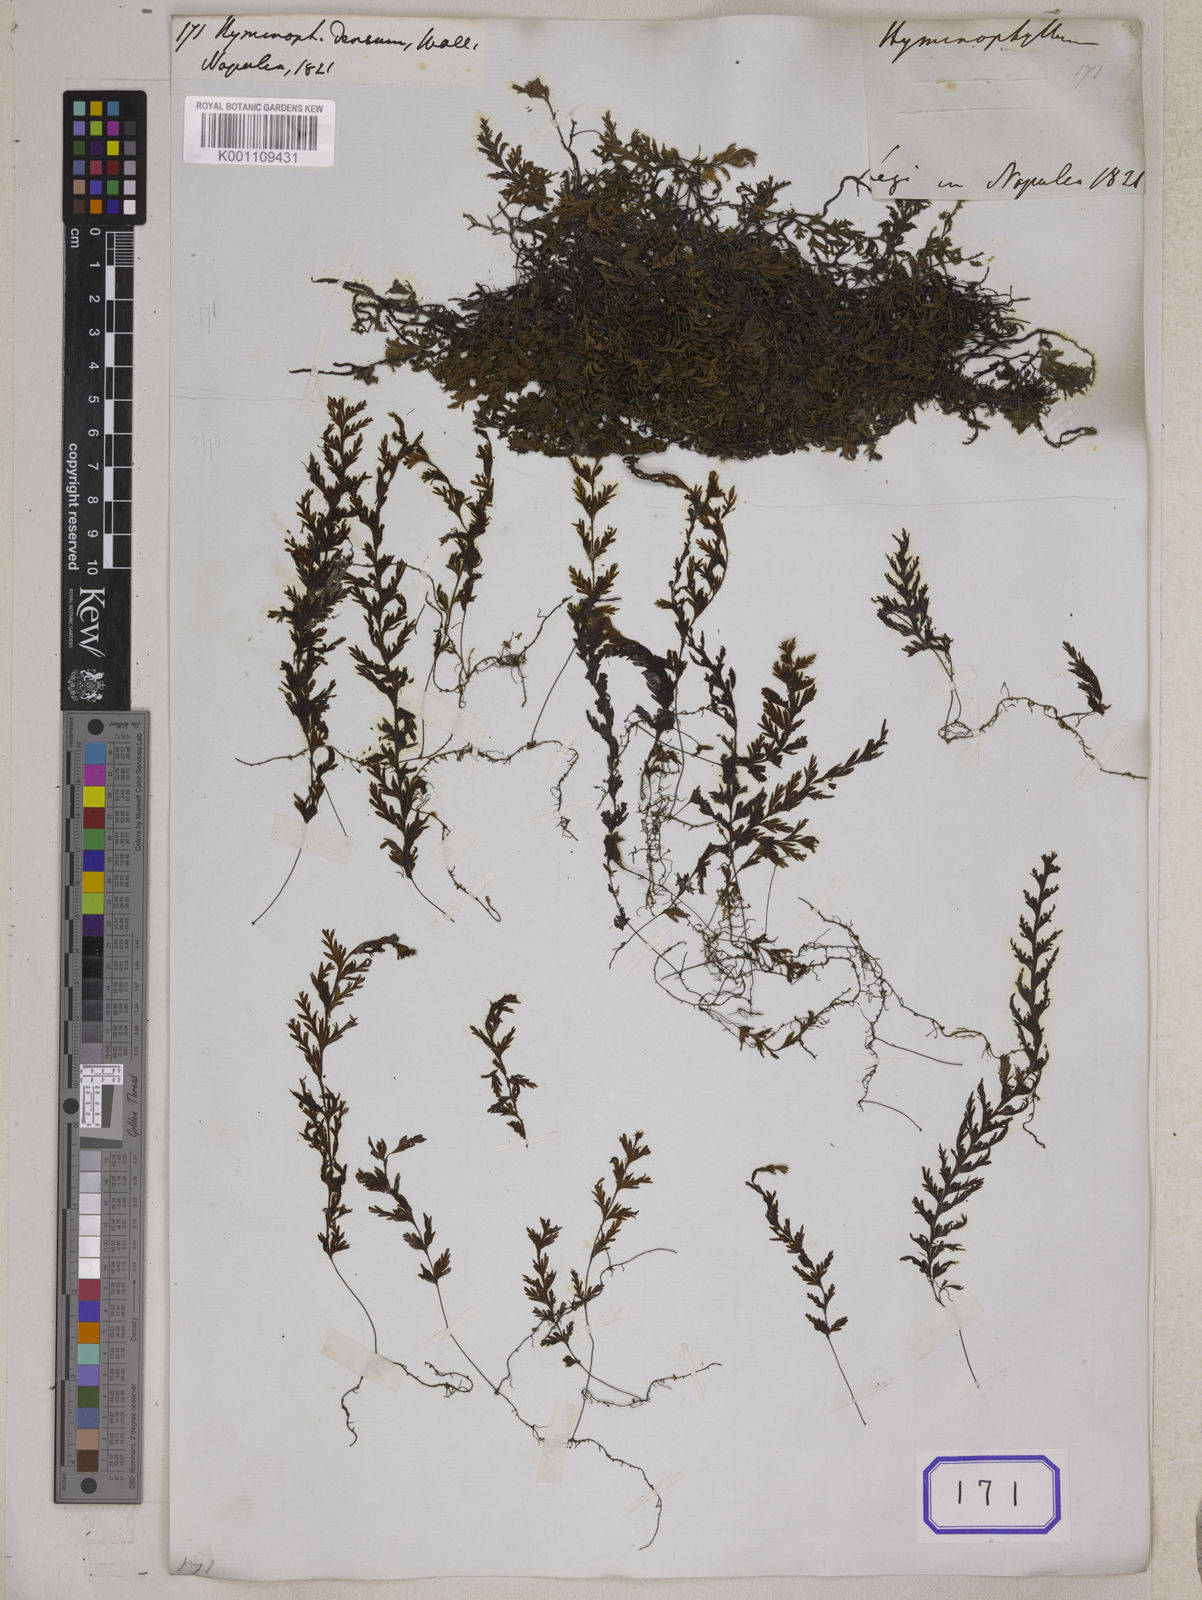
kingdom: Plantae
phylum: Tracheophyta
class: Polypodiopsida
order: Hymenophyllales
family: Hymenophyllaceae
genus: Hymenophyllum
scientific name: Hymenophyllum exsertum
